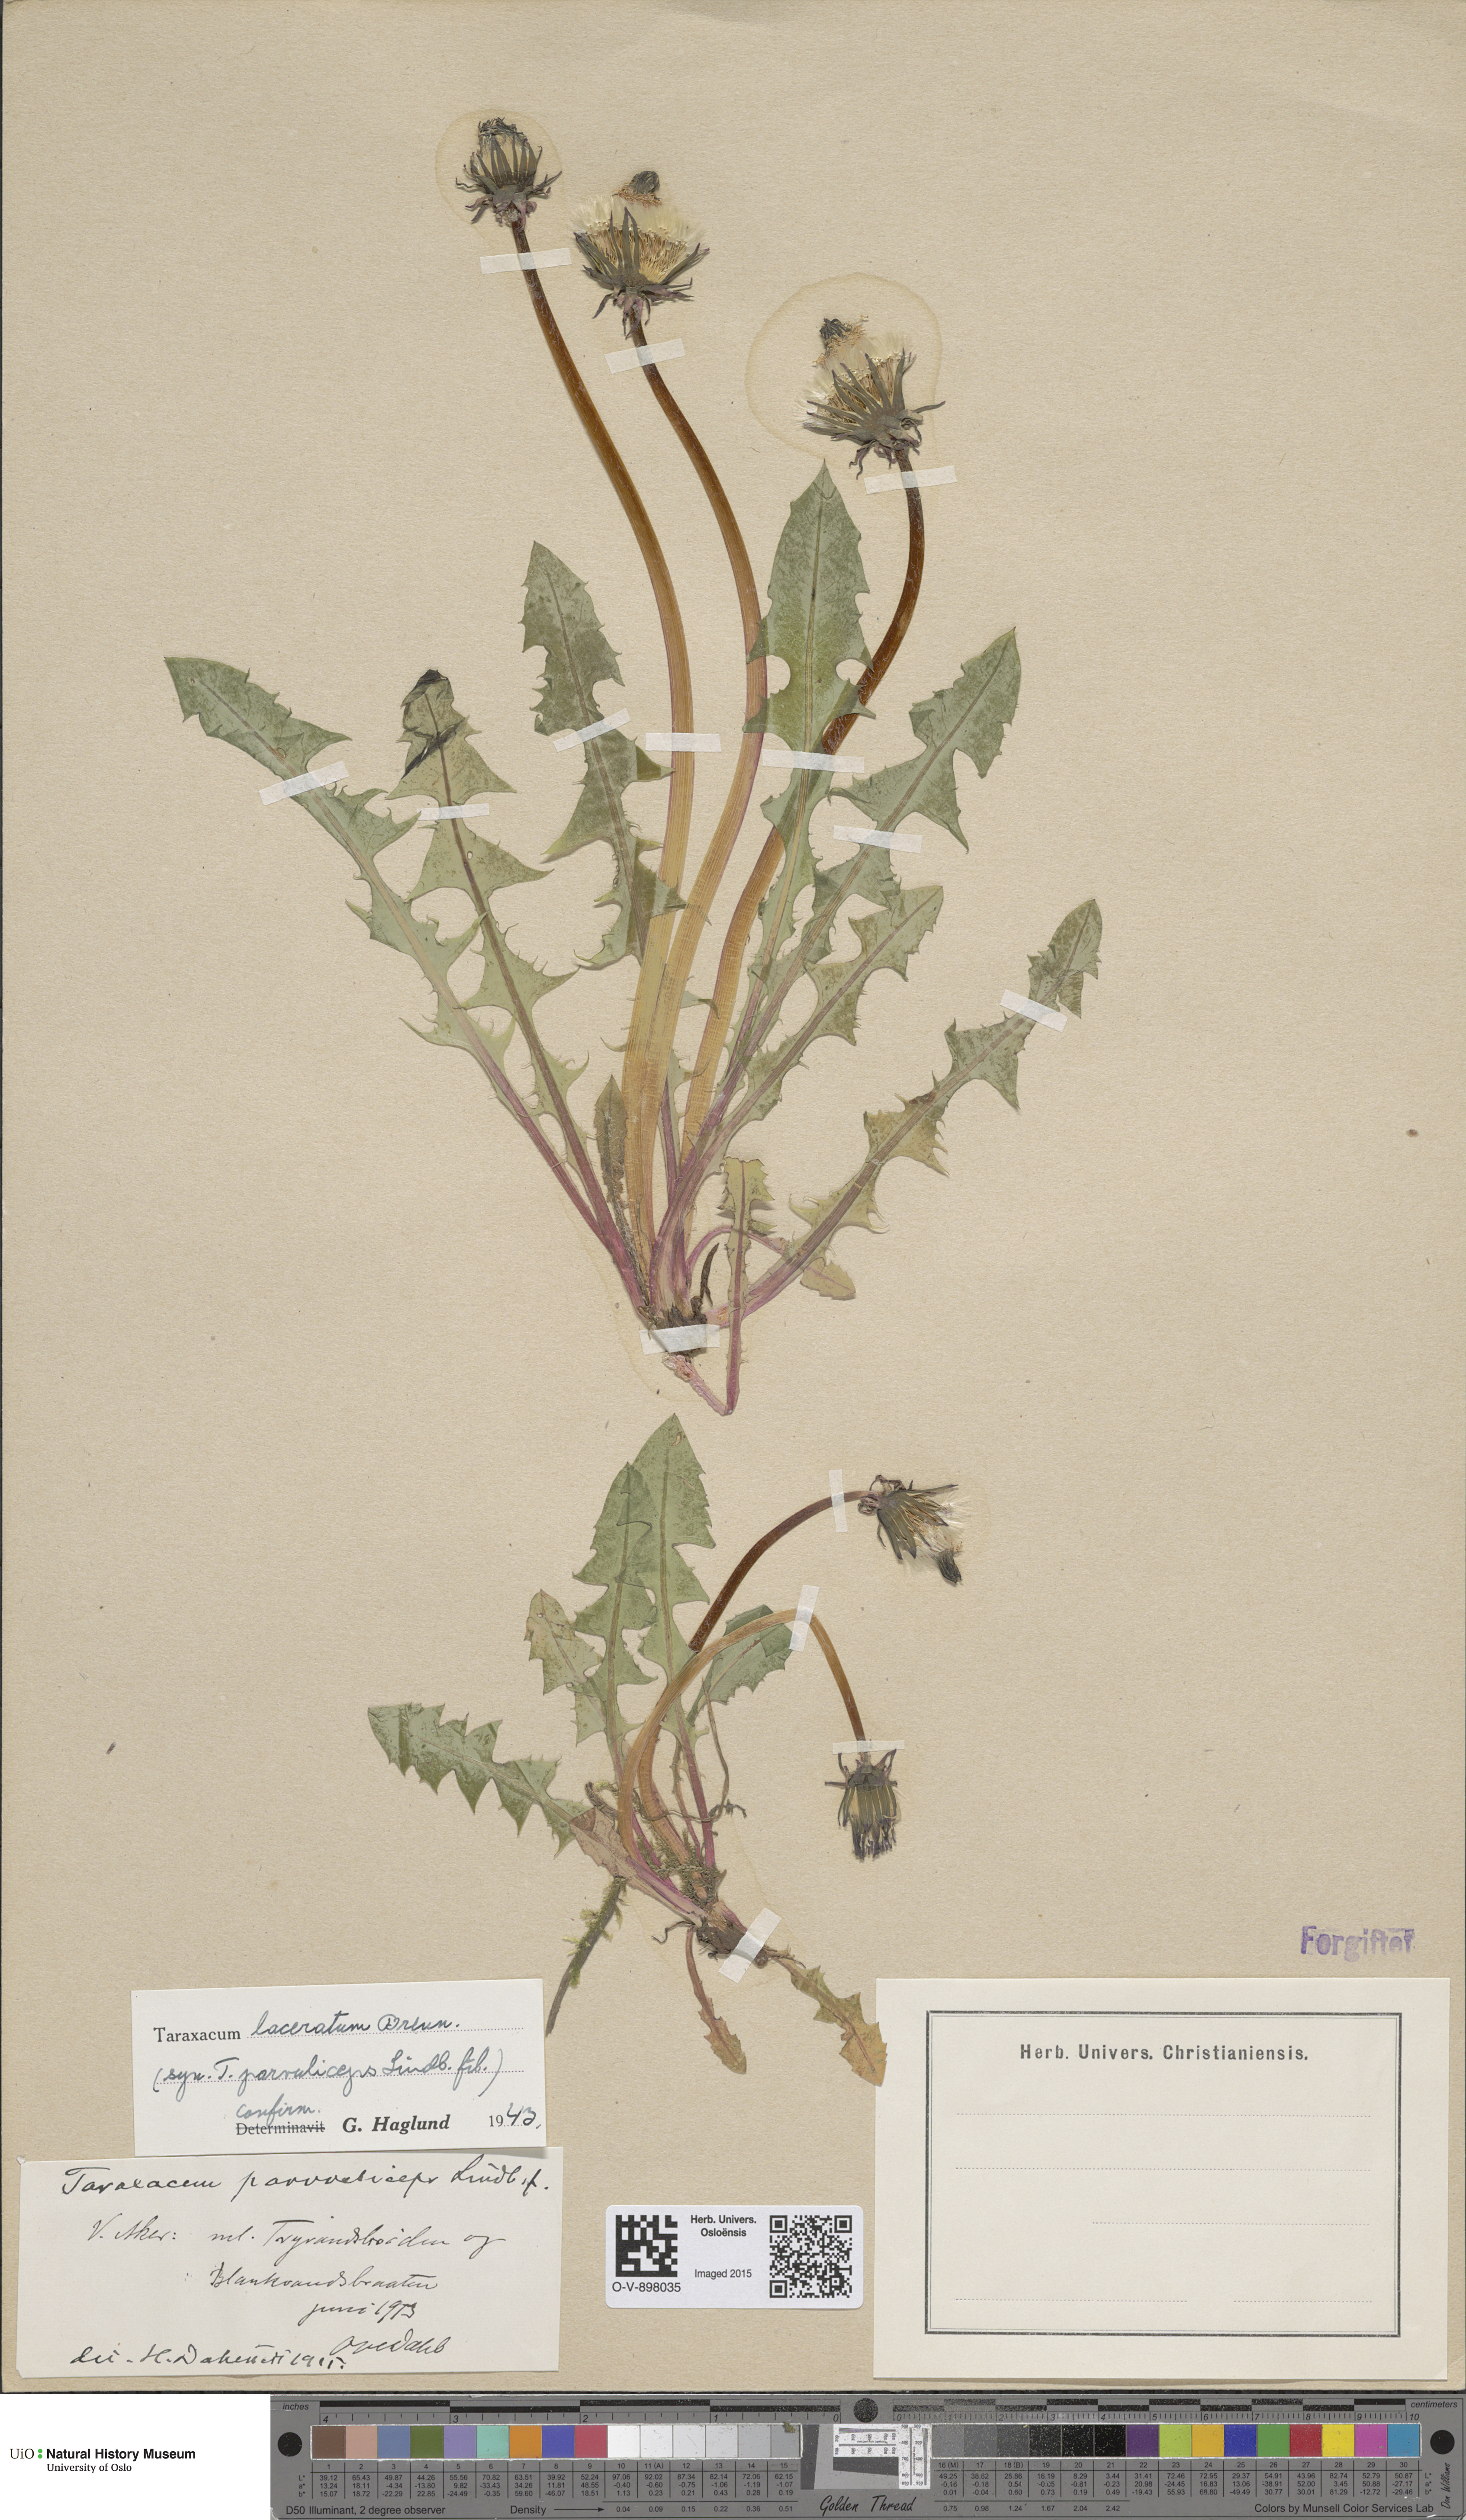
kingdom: Plantae
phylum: Tracheophyta
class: Magnoliopsida
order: Asterales
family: Asteraceae
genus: Taraxacum
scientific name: Taraxacum laceratum
